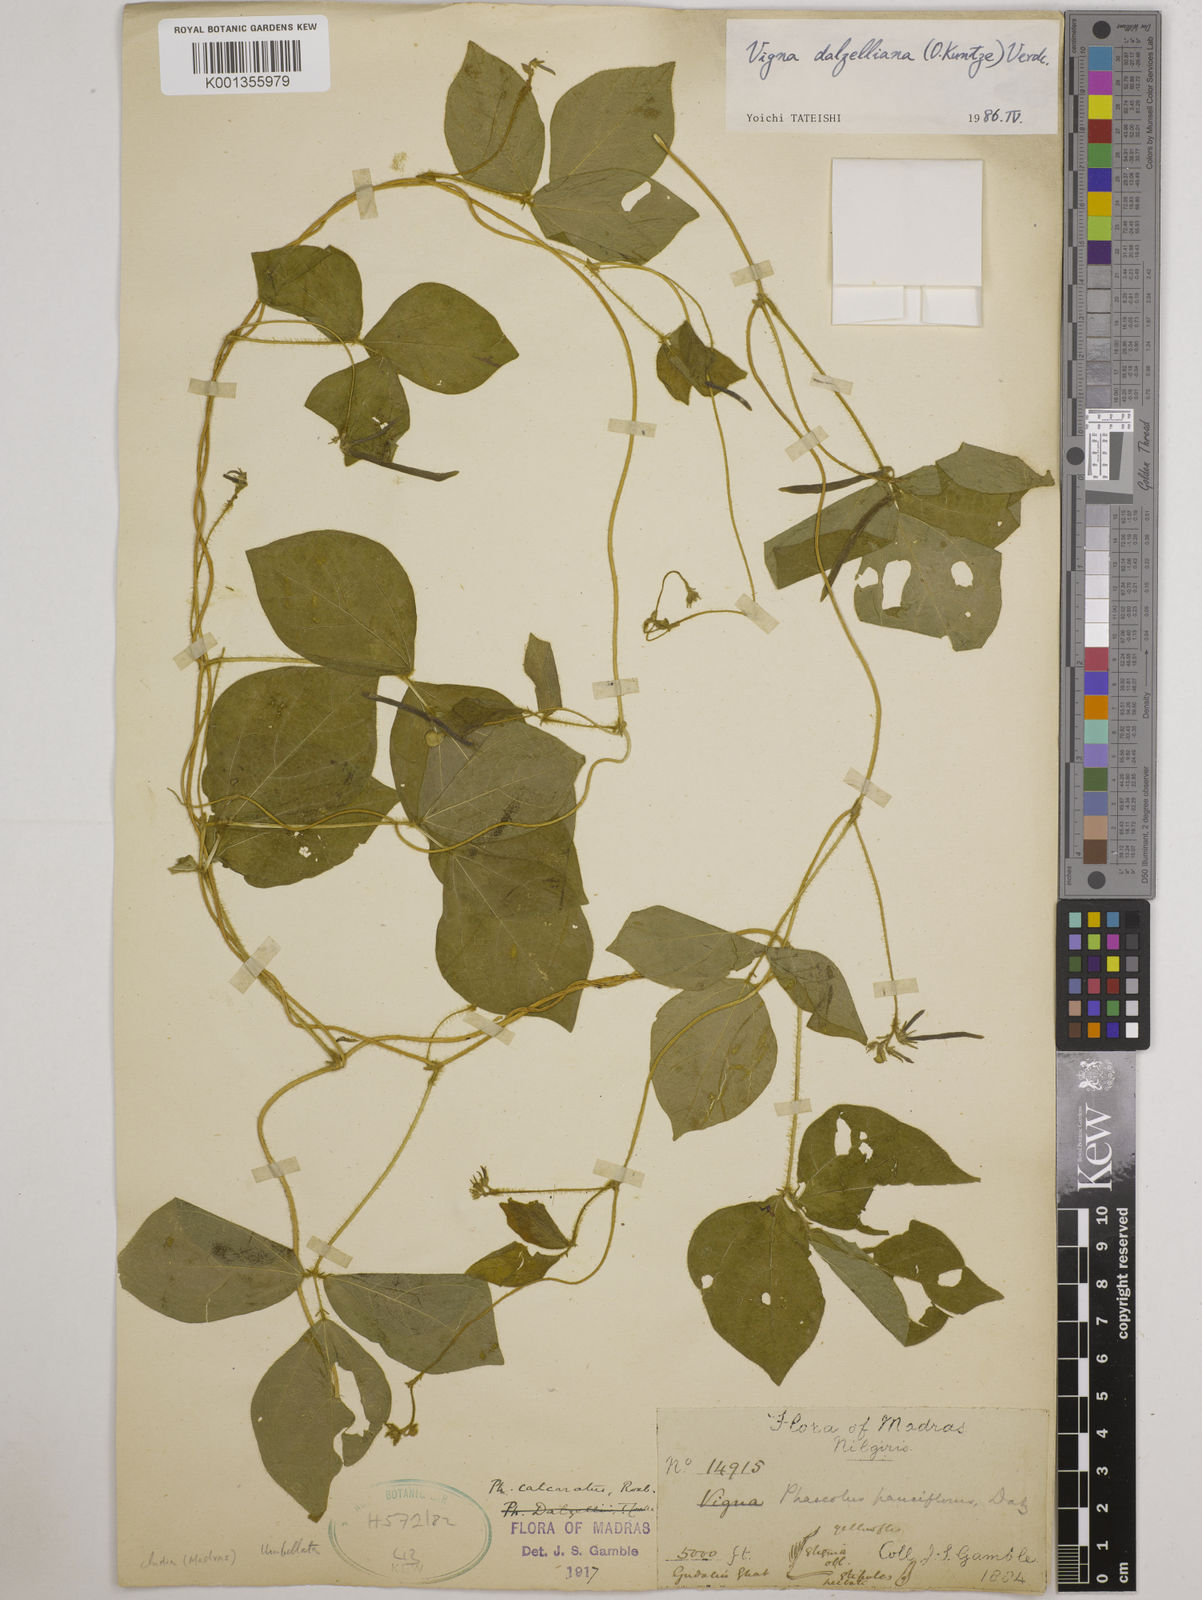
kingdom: Plantae
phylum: Tracheophyta
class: Magnoliopsida
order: Fabales
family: Fabaceae
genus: Vigna
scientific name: Vigna dalzelliana
